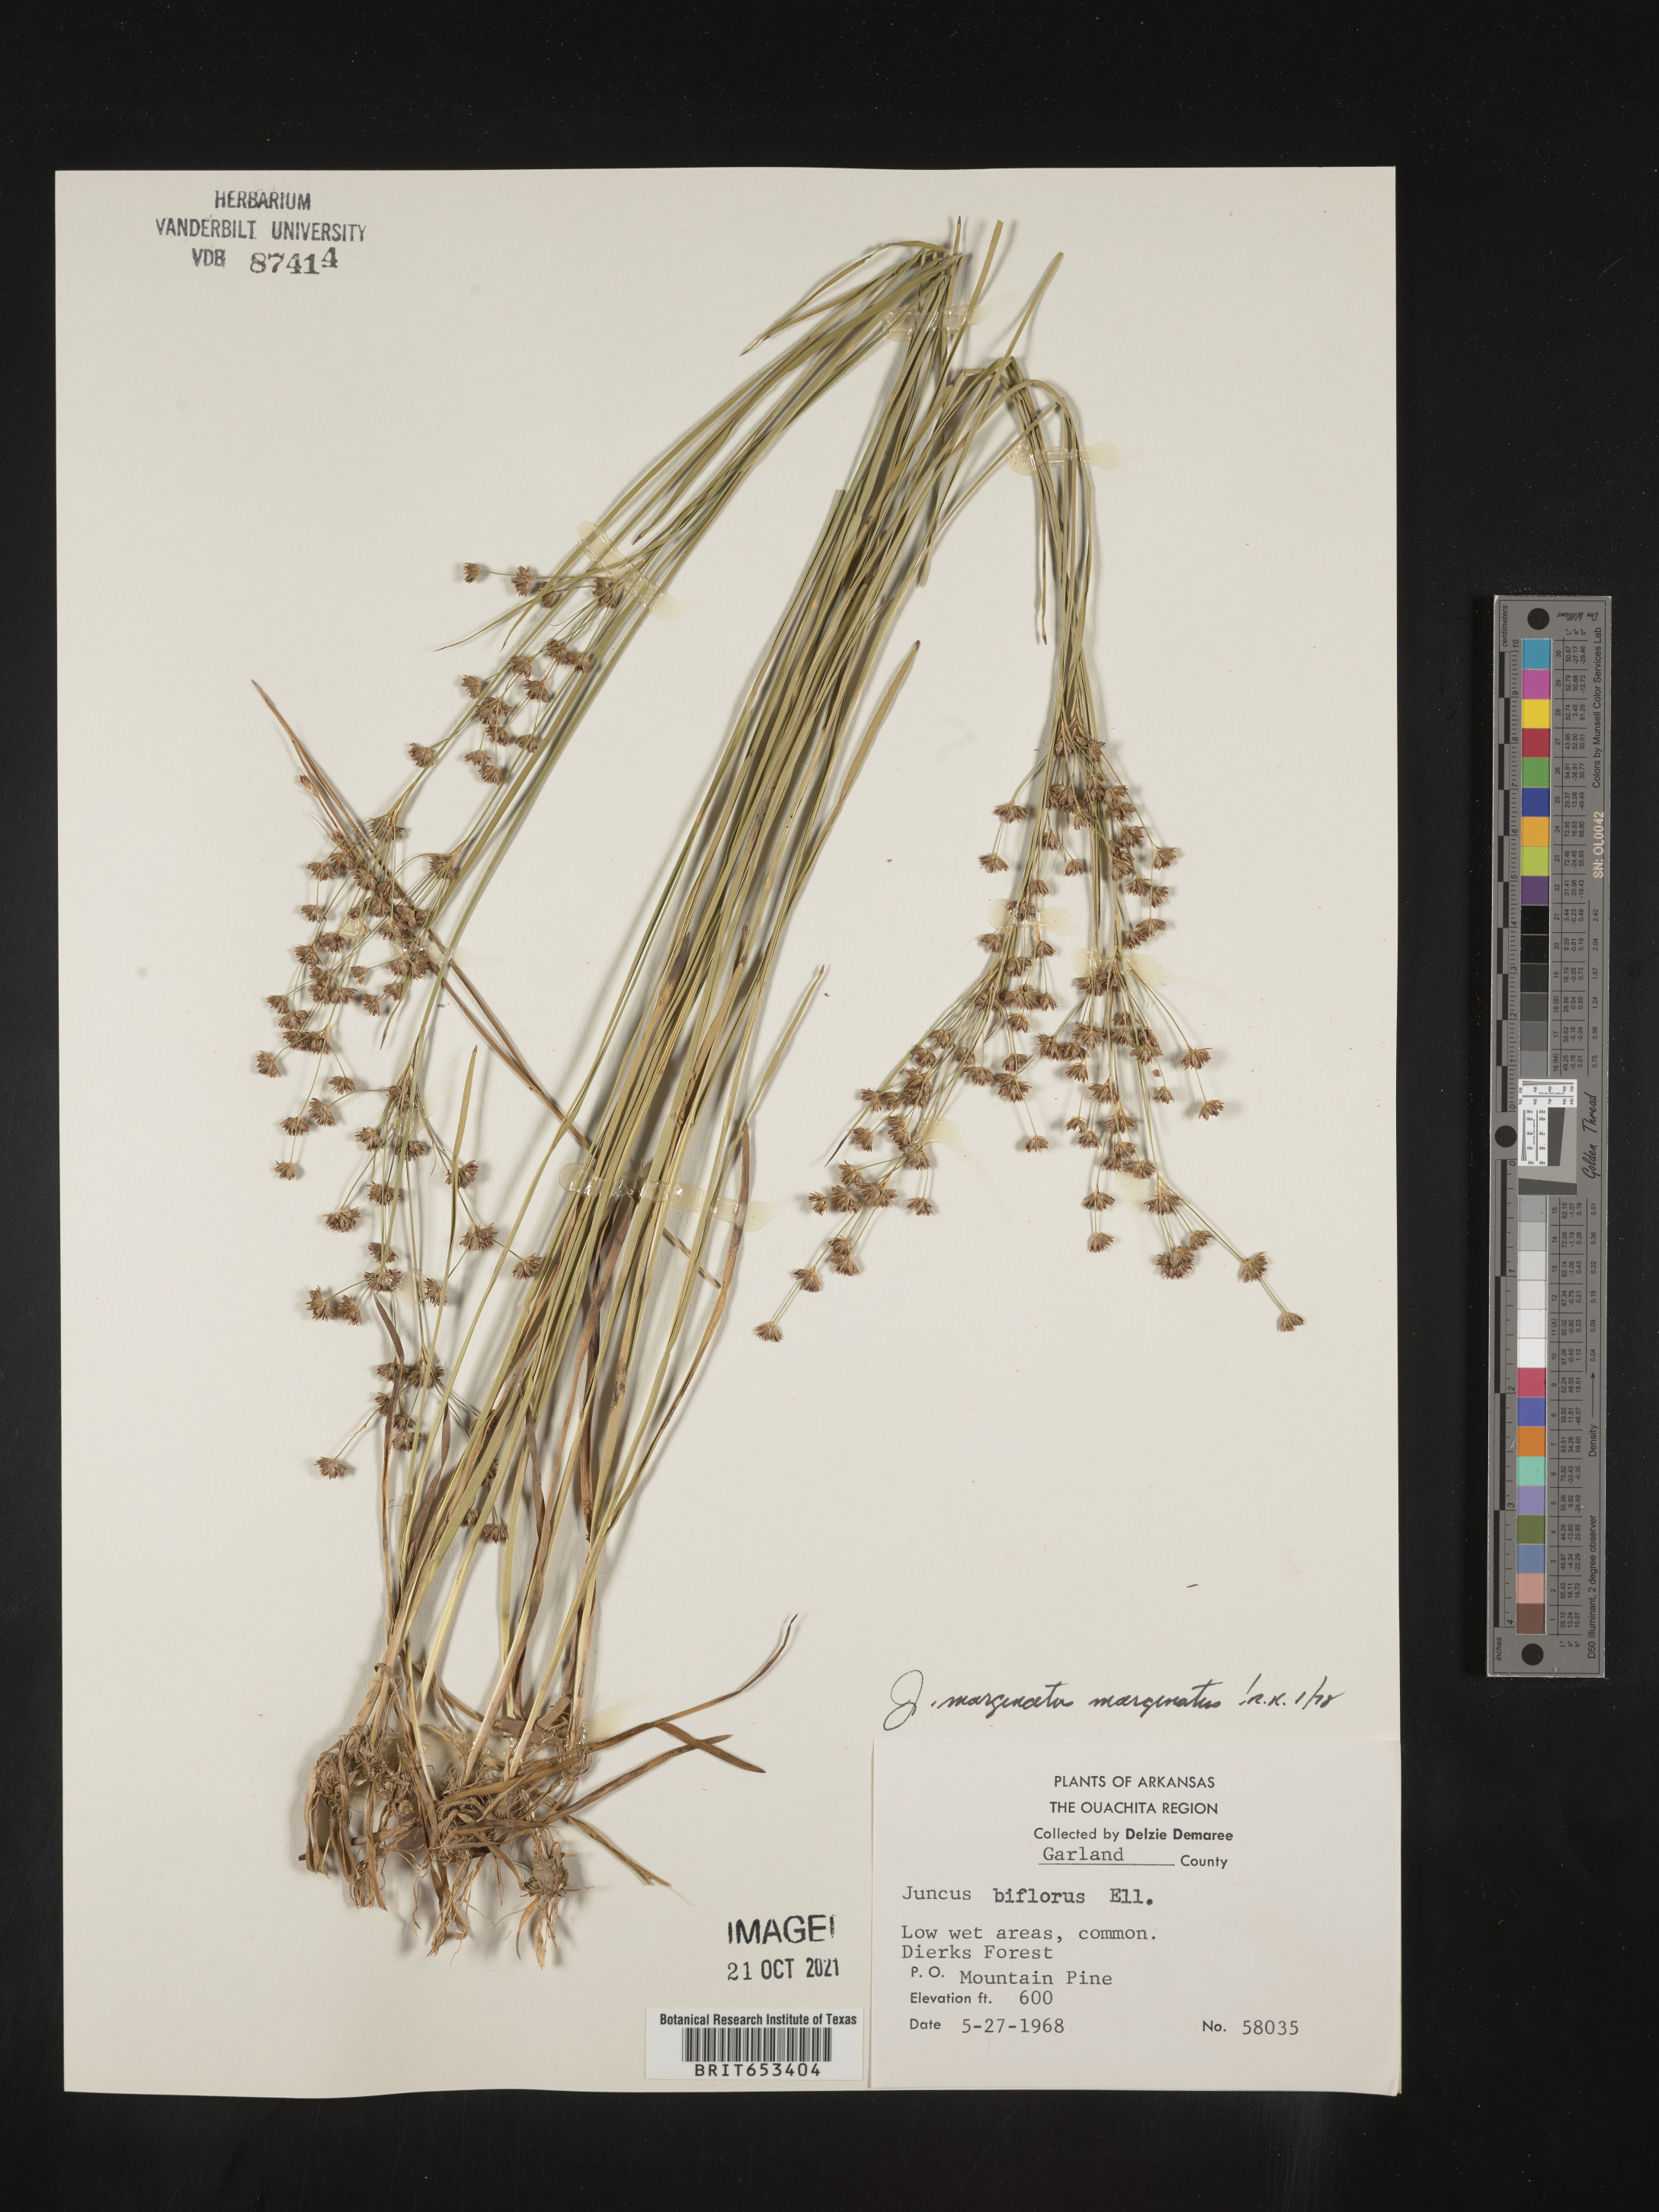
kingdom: Plantae
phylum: Tracheophyta
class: Liliopsida
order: Poales
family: Juncaceae
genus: Juncus
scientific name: Juncus marginatus
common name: Grass-leaf rush
